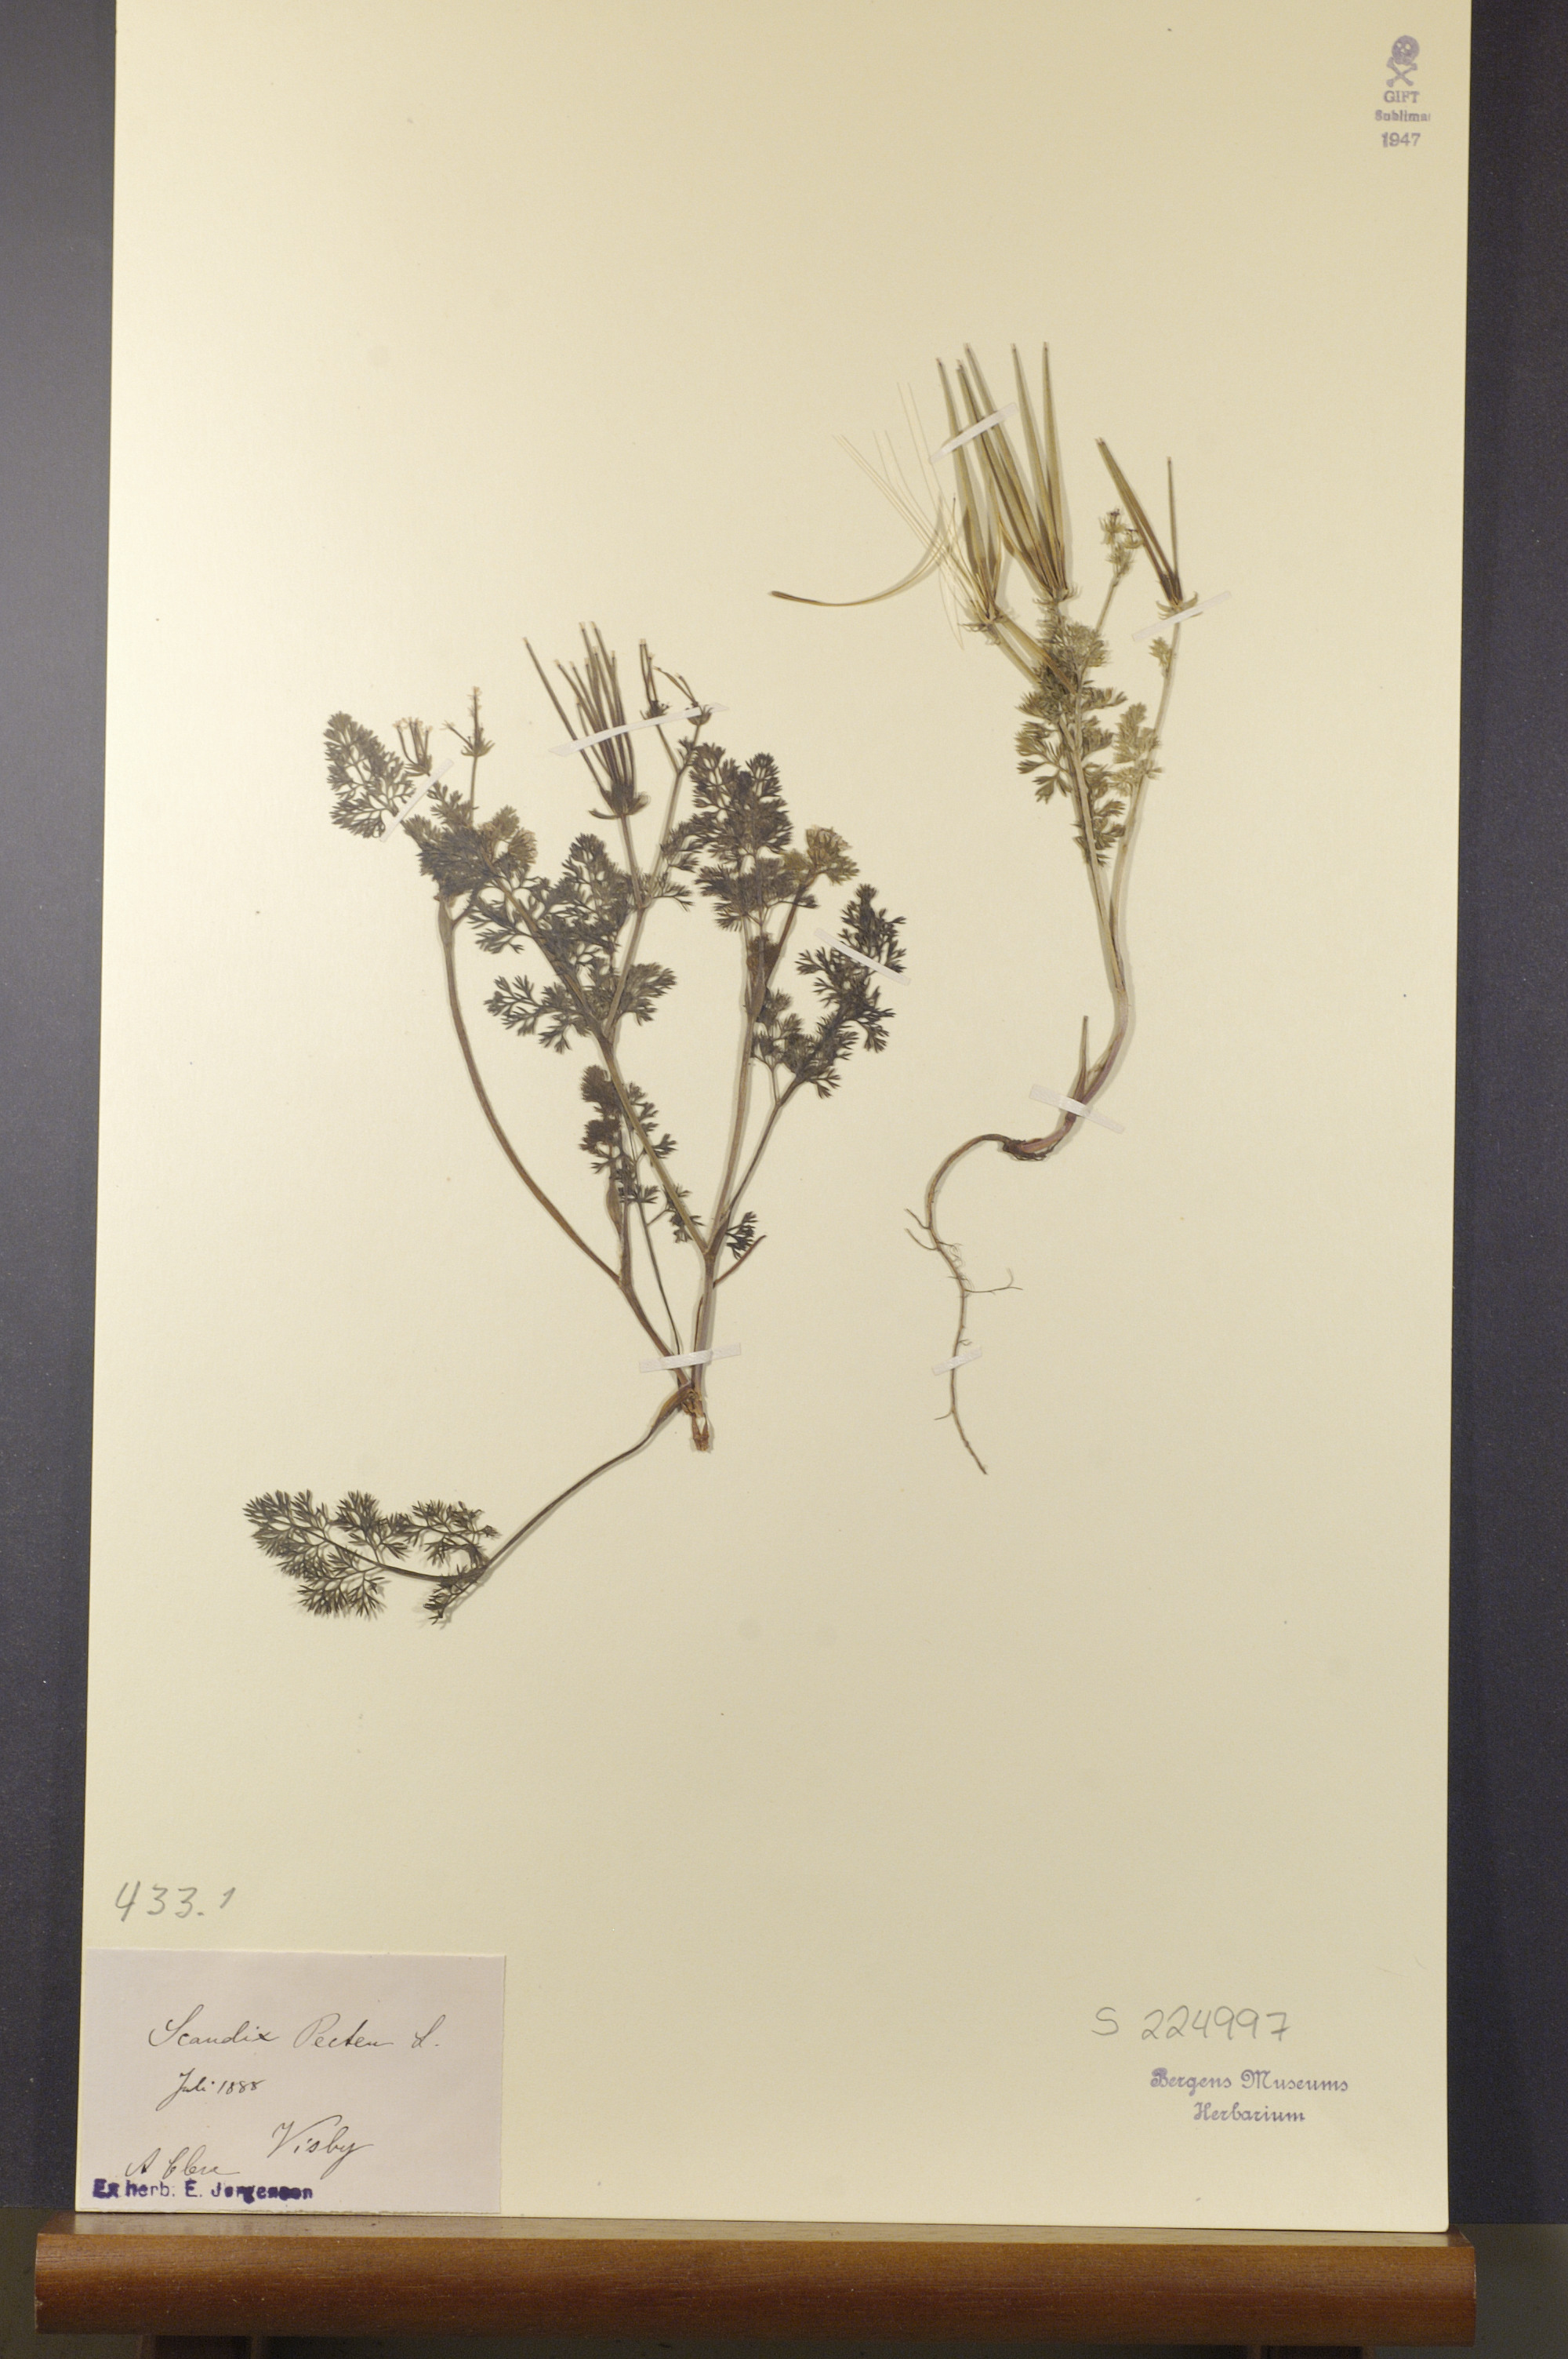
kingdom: Plantae
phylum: Tracheophyta
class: Magnoliopsida
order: Apiales
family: Apiaceae
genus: Scandix
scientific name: Scandix pecten-veneris
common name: Shepherd's-needle
